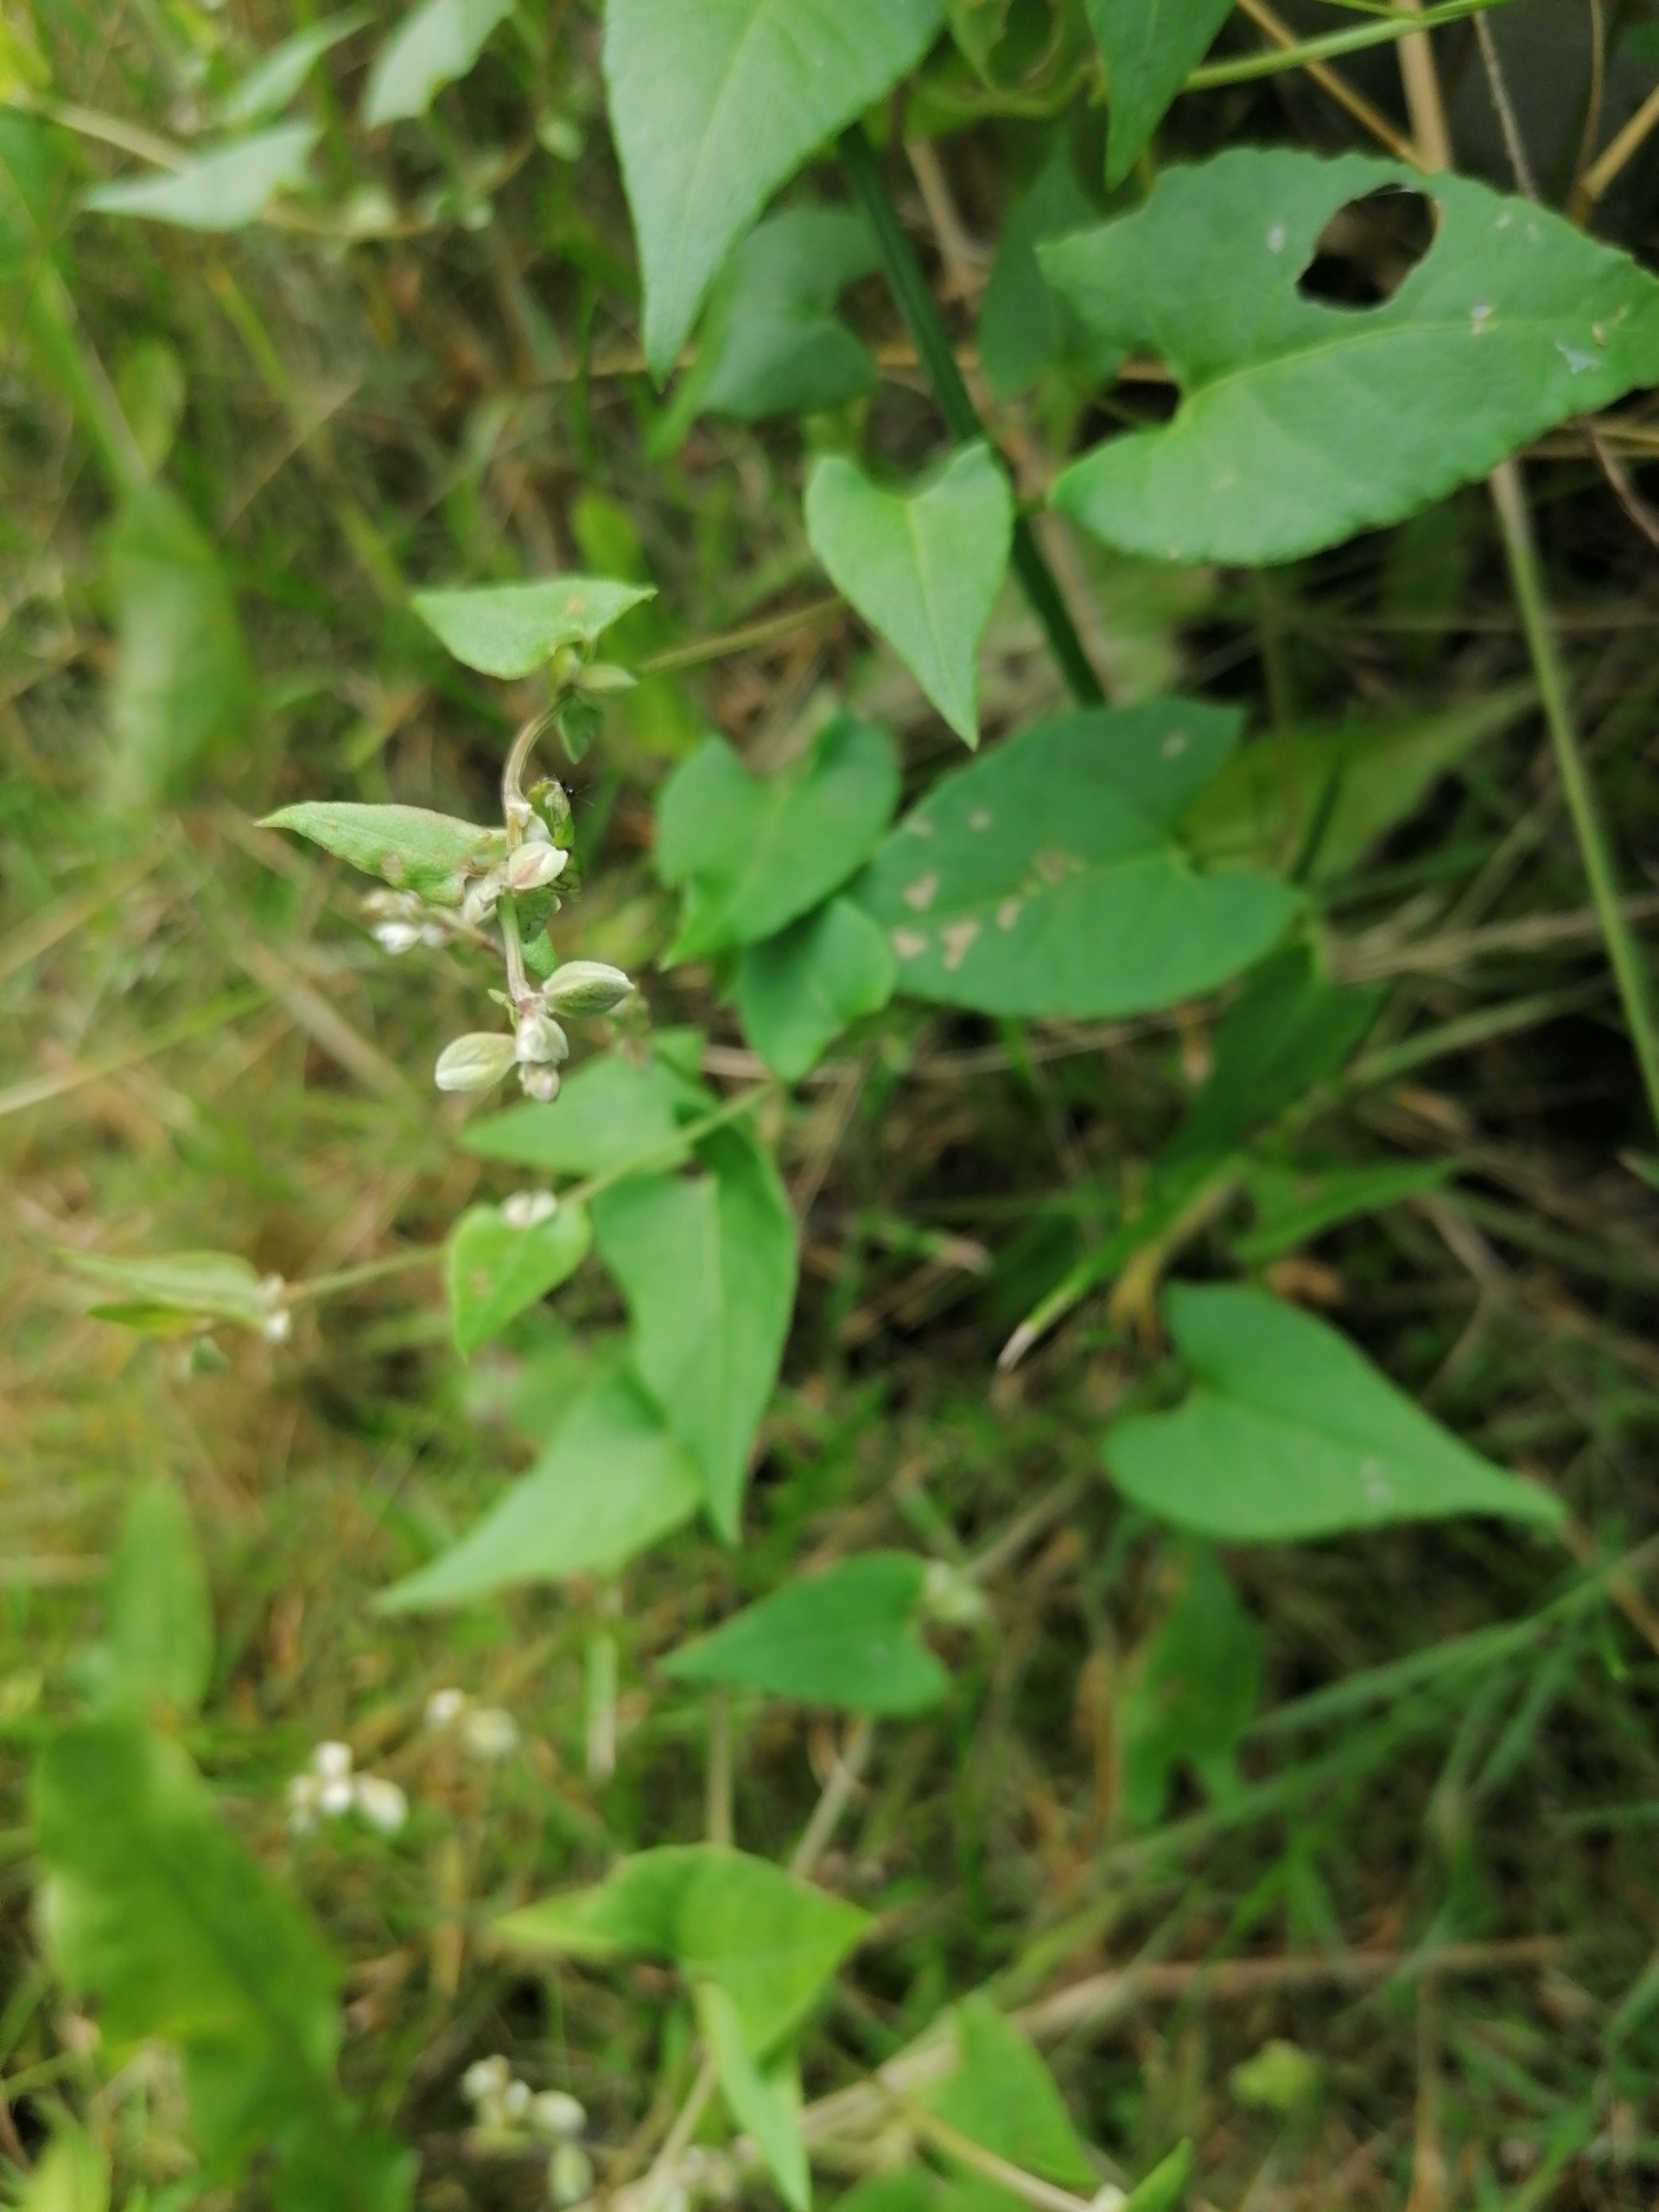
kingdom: Plantae
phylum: Tracheophyta
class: Magnoliopsida
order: Caryophyllales
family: Polygonaceae
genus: Fallopia
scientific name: Fallopia convolvulus
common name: Snerle-pileurt
